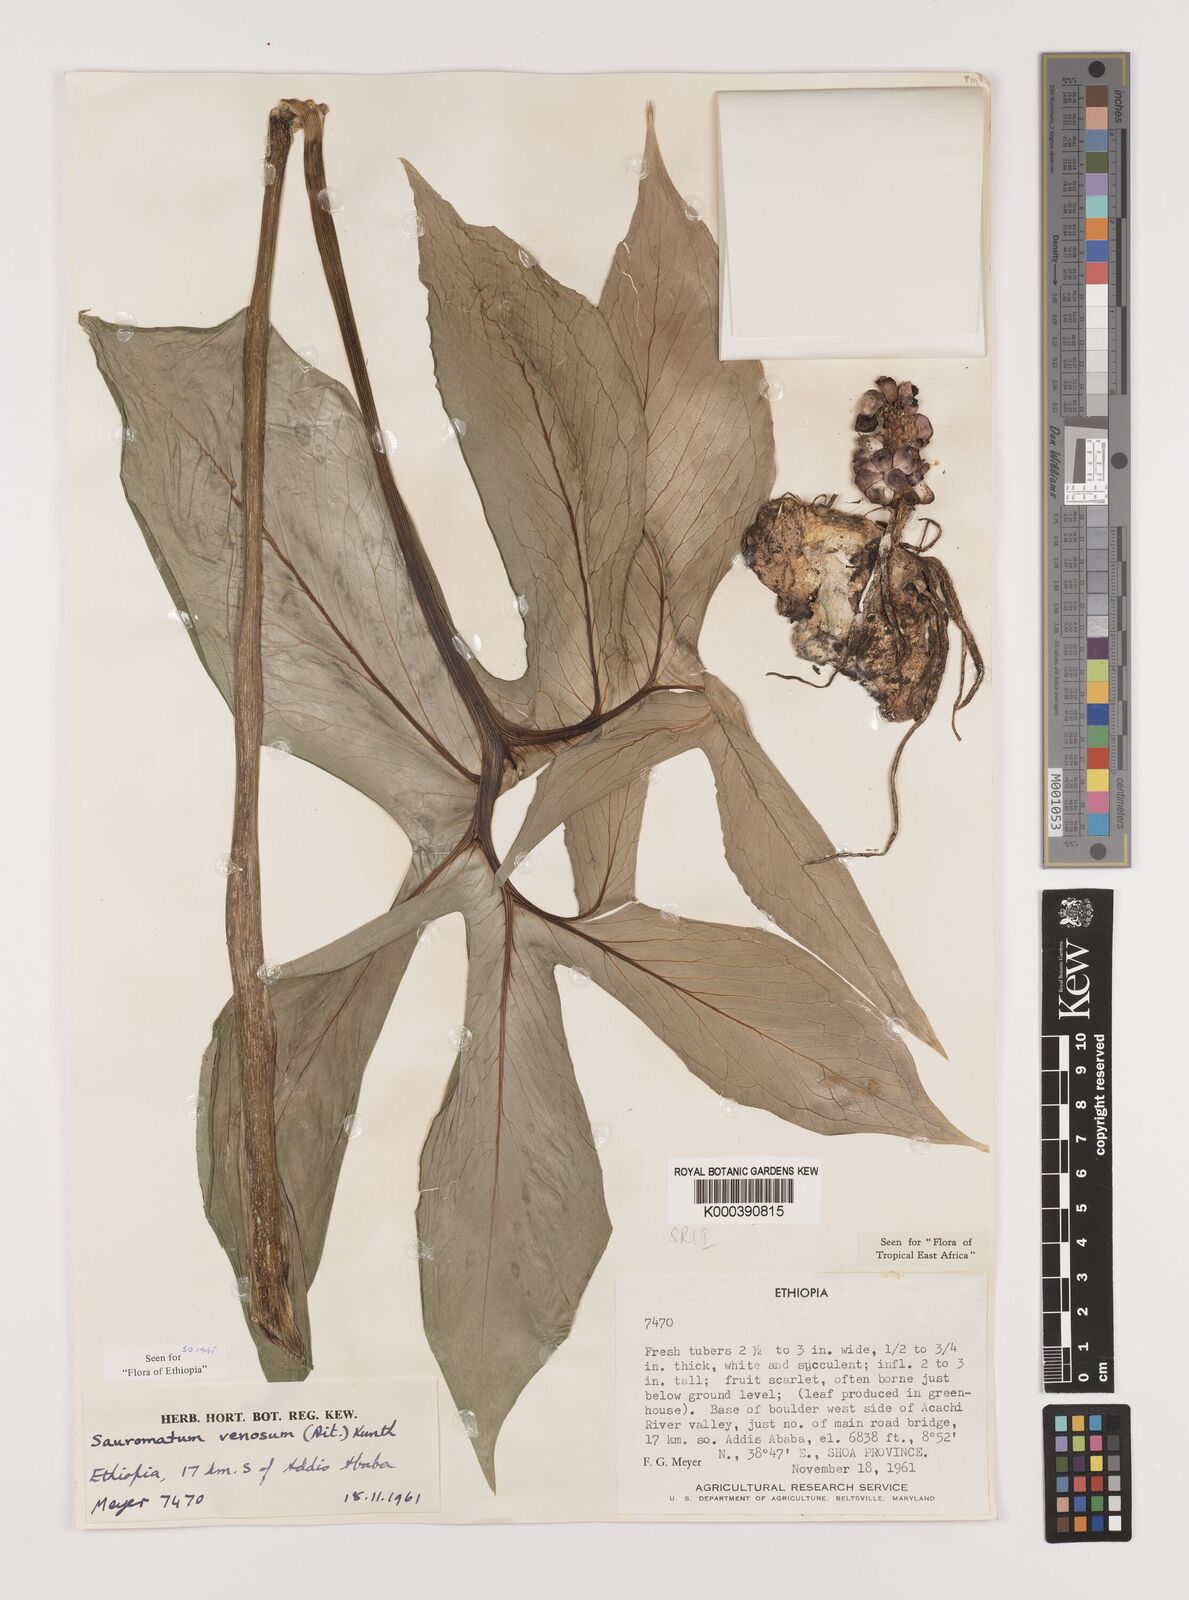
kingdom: Plantae
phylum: Tracheophyta
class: Liliopsida
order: Alismatales
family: Araceae
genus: Sauromatum
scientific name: Sauromatum venosum
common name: Voodoo lily
